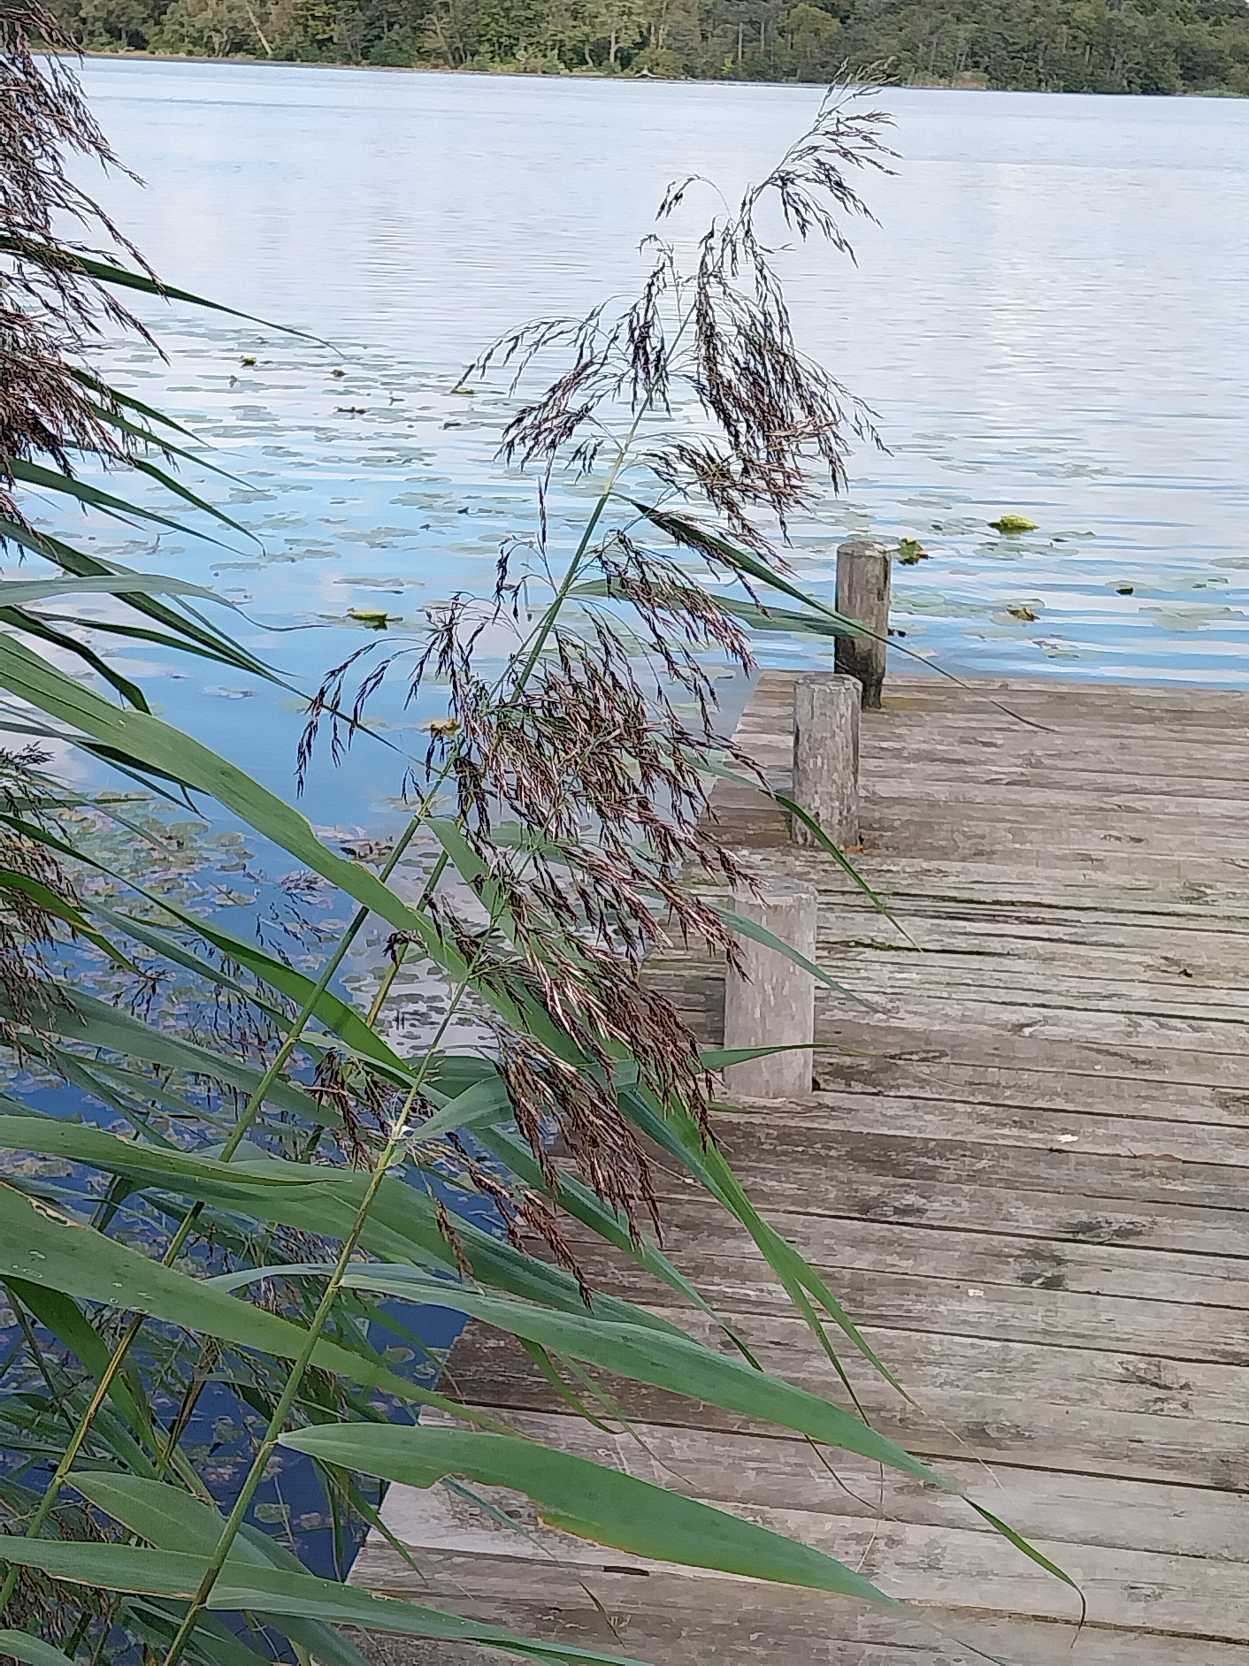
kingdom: Plantae
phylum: Tracheophyta
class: Liliopsida
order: Poales
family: Poaceae
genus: Phragmites
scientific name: Phragmites australis
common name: Tagrør
